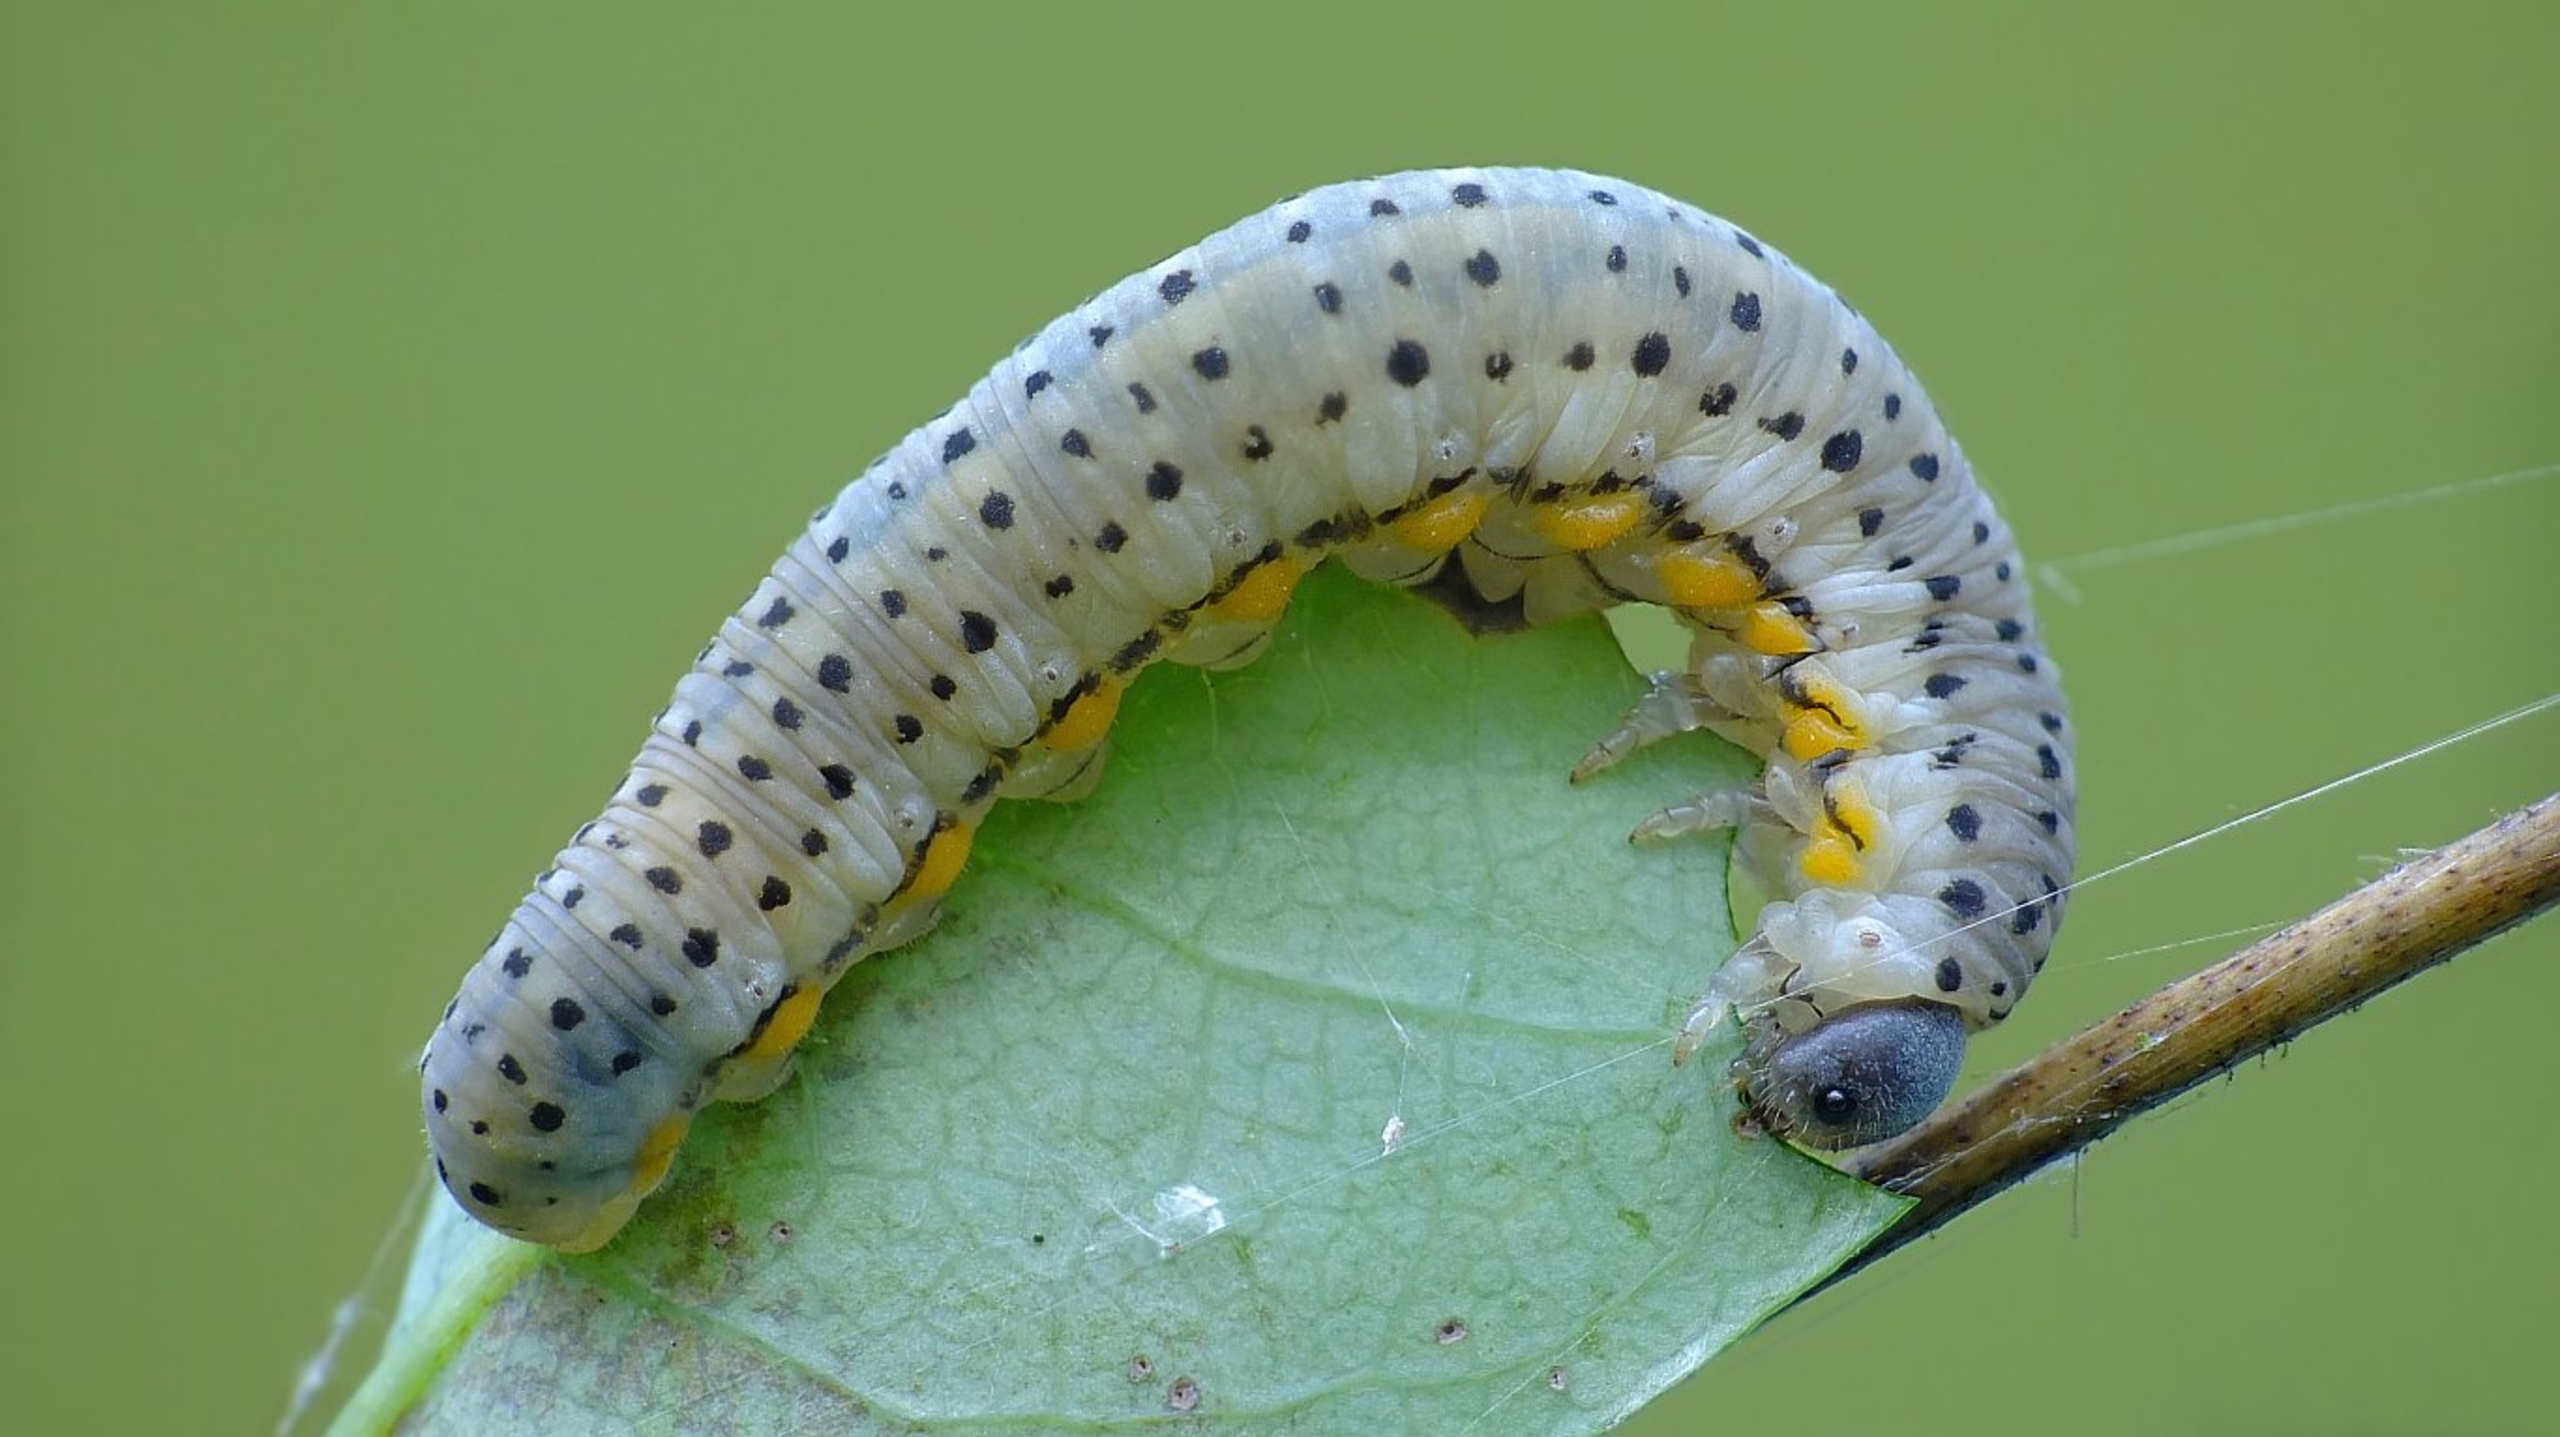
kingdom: Animalia
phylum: Arthropoda
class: Insecta
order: Hymenoptera
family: Cimbicidae
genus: Abia
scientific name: Abia fasciata
